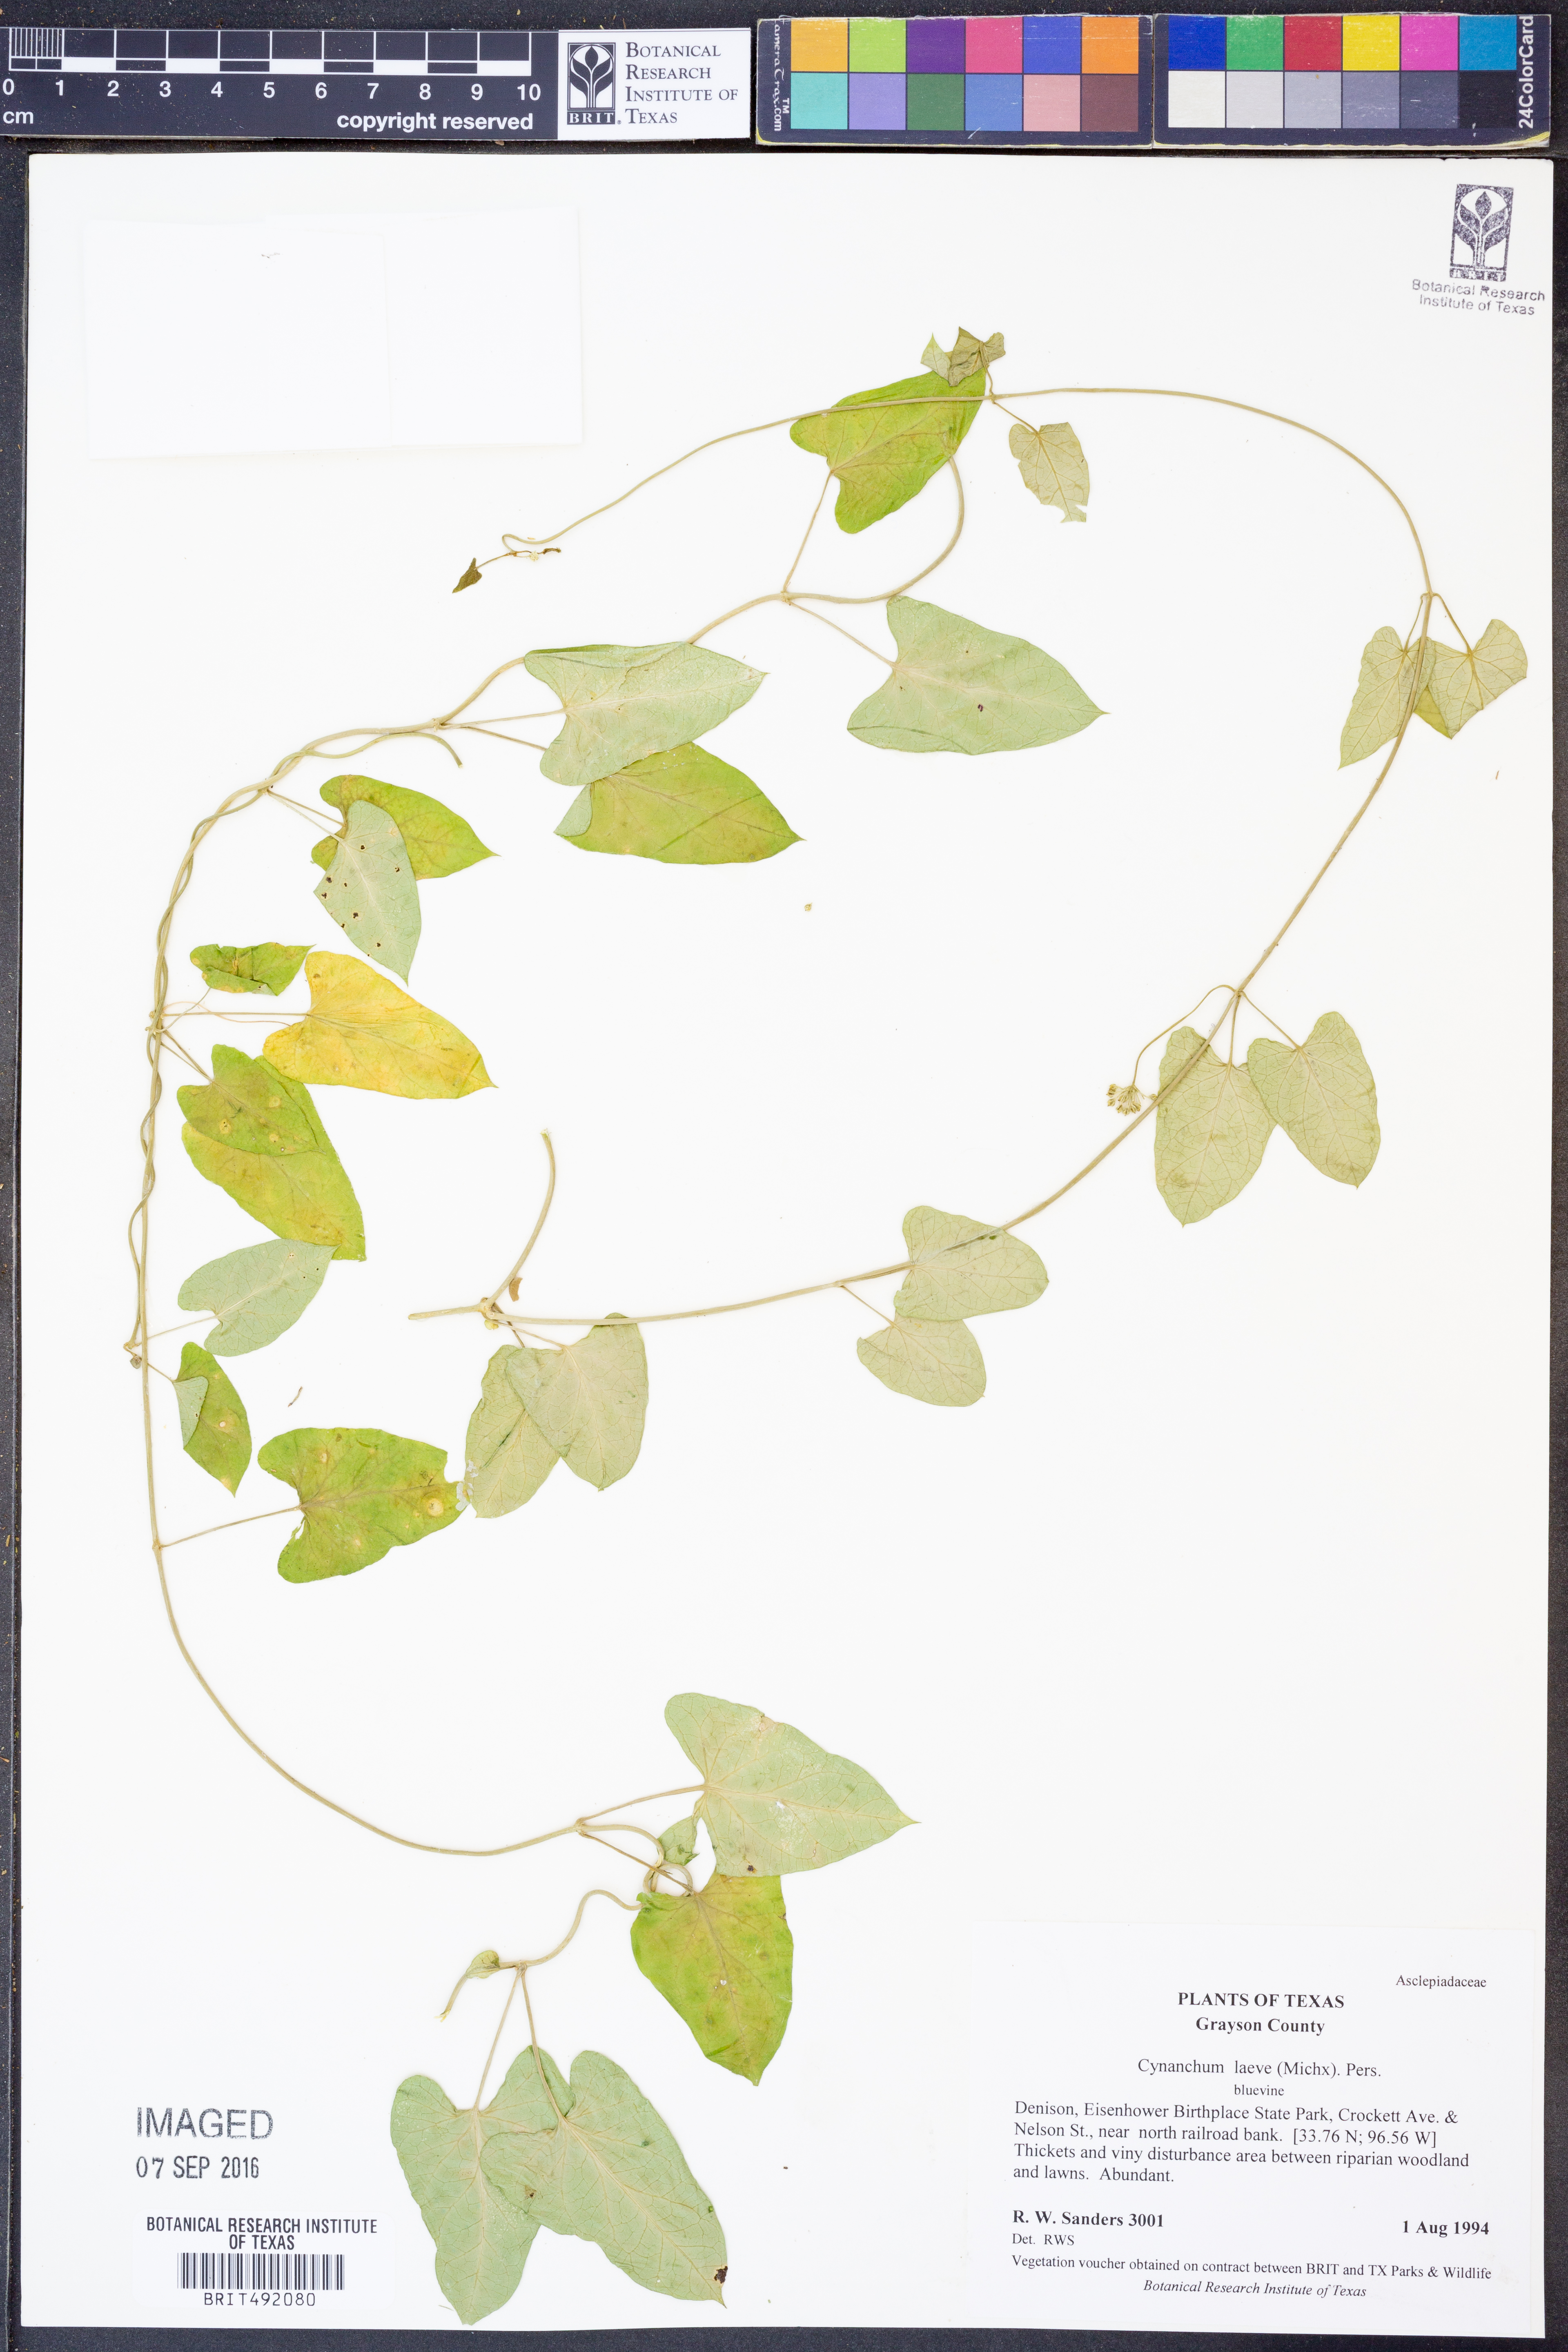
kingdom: Plantae
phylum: Tracheophyta
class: Magnoliopsida
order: Gentianales
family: Apocynaceae
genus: Cynanchum
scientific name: Cynanchum laeve
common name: Sandvine
